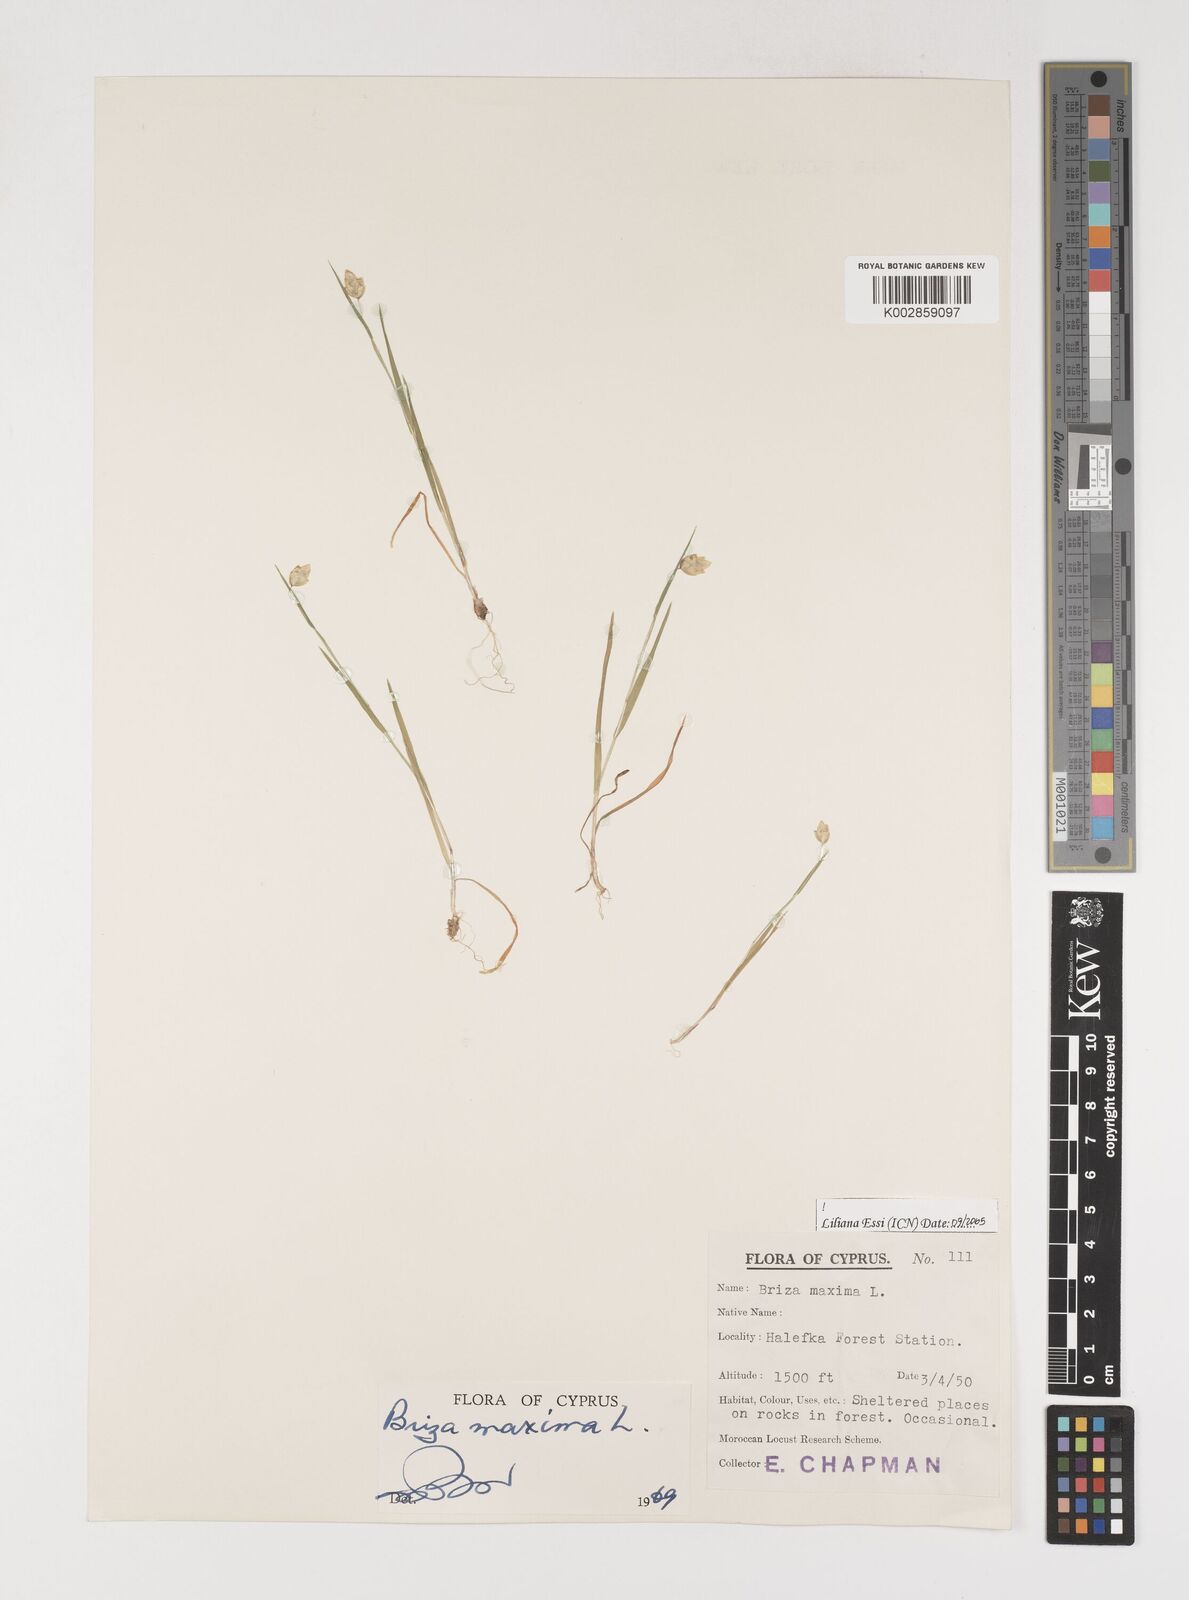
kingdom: Plantae
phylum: Tracheophyta
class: Liliopsida
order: Poales
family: Poaceae
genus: Briza
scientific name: Briza maxima
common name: Big quakinggrass
